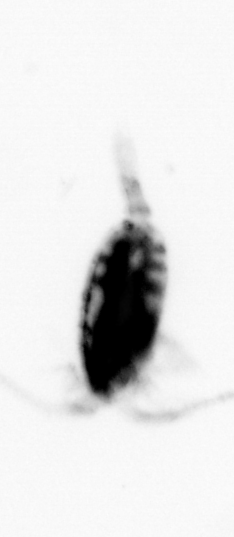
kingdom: Animalia
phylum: Arthropoda
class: Copepoda
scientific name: Copepoda
